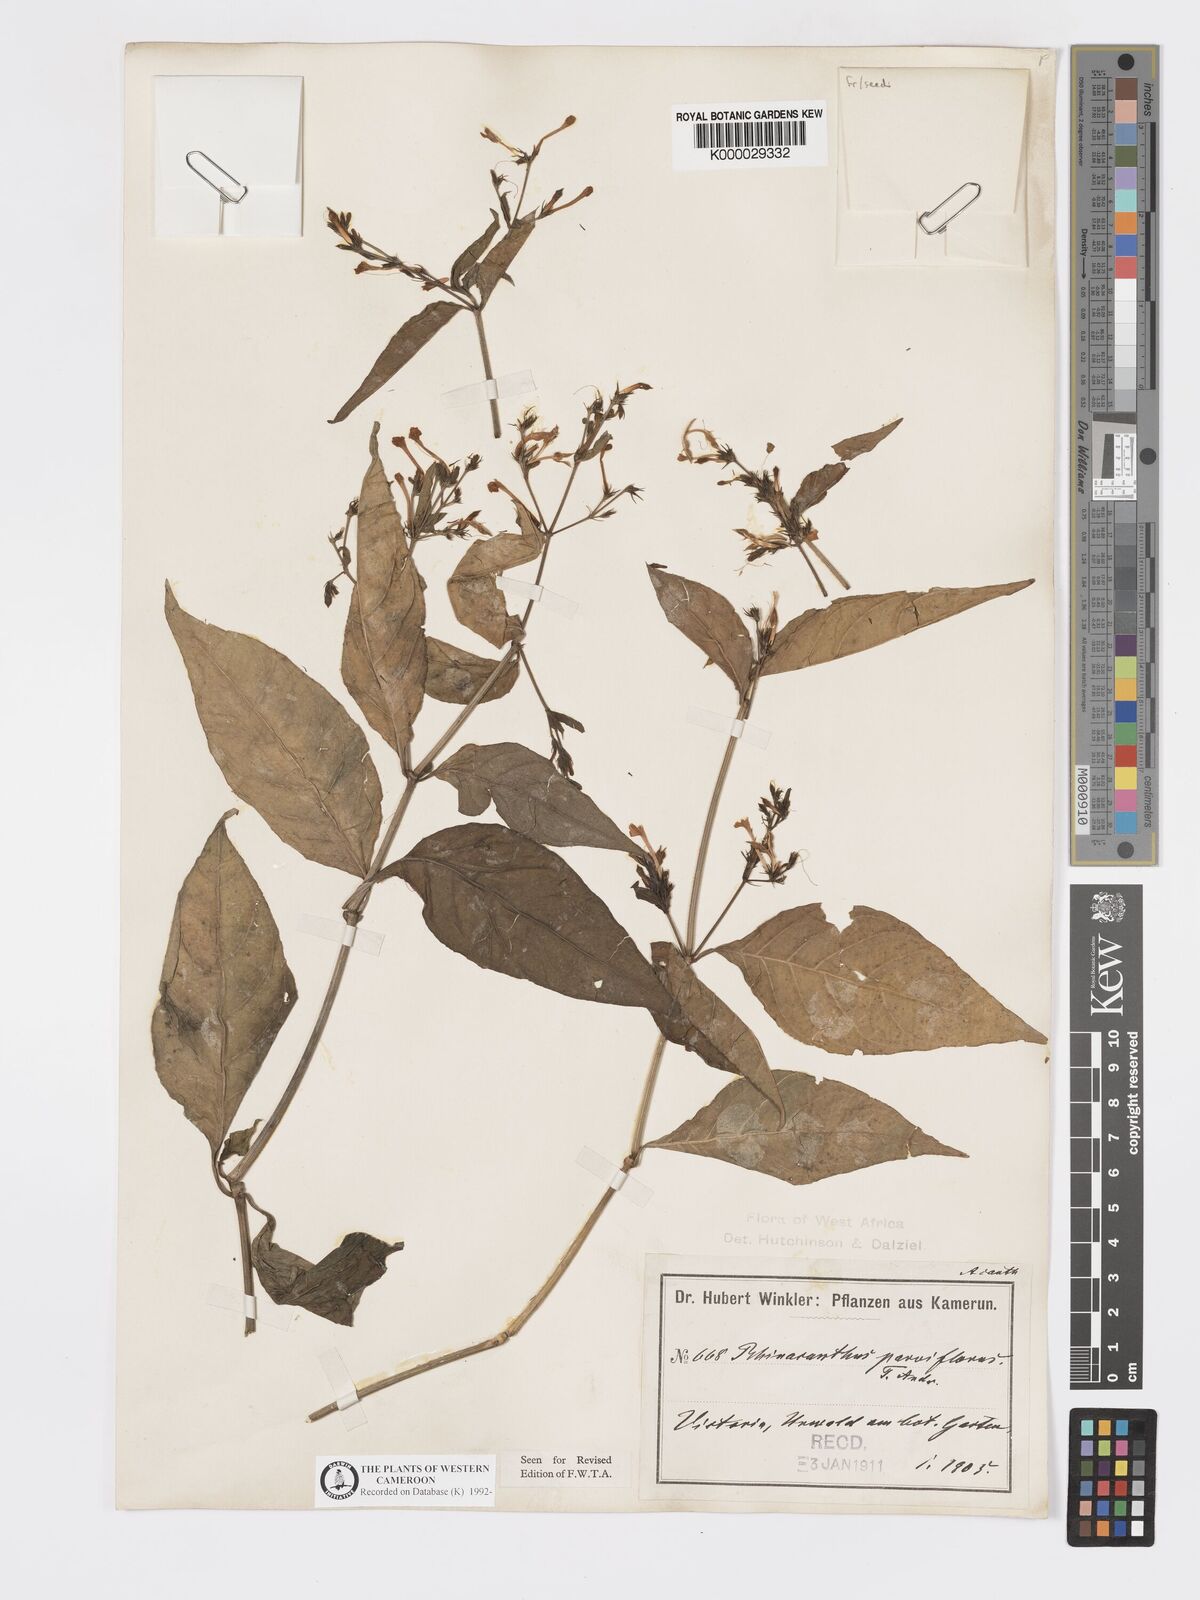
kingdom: Plantae
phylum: Tracheophyta
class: Magnoliopsida
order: Lamiales
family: Acanthaceae
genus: Rhinacanthus
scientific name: Rhinacanthus virens
